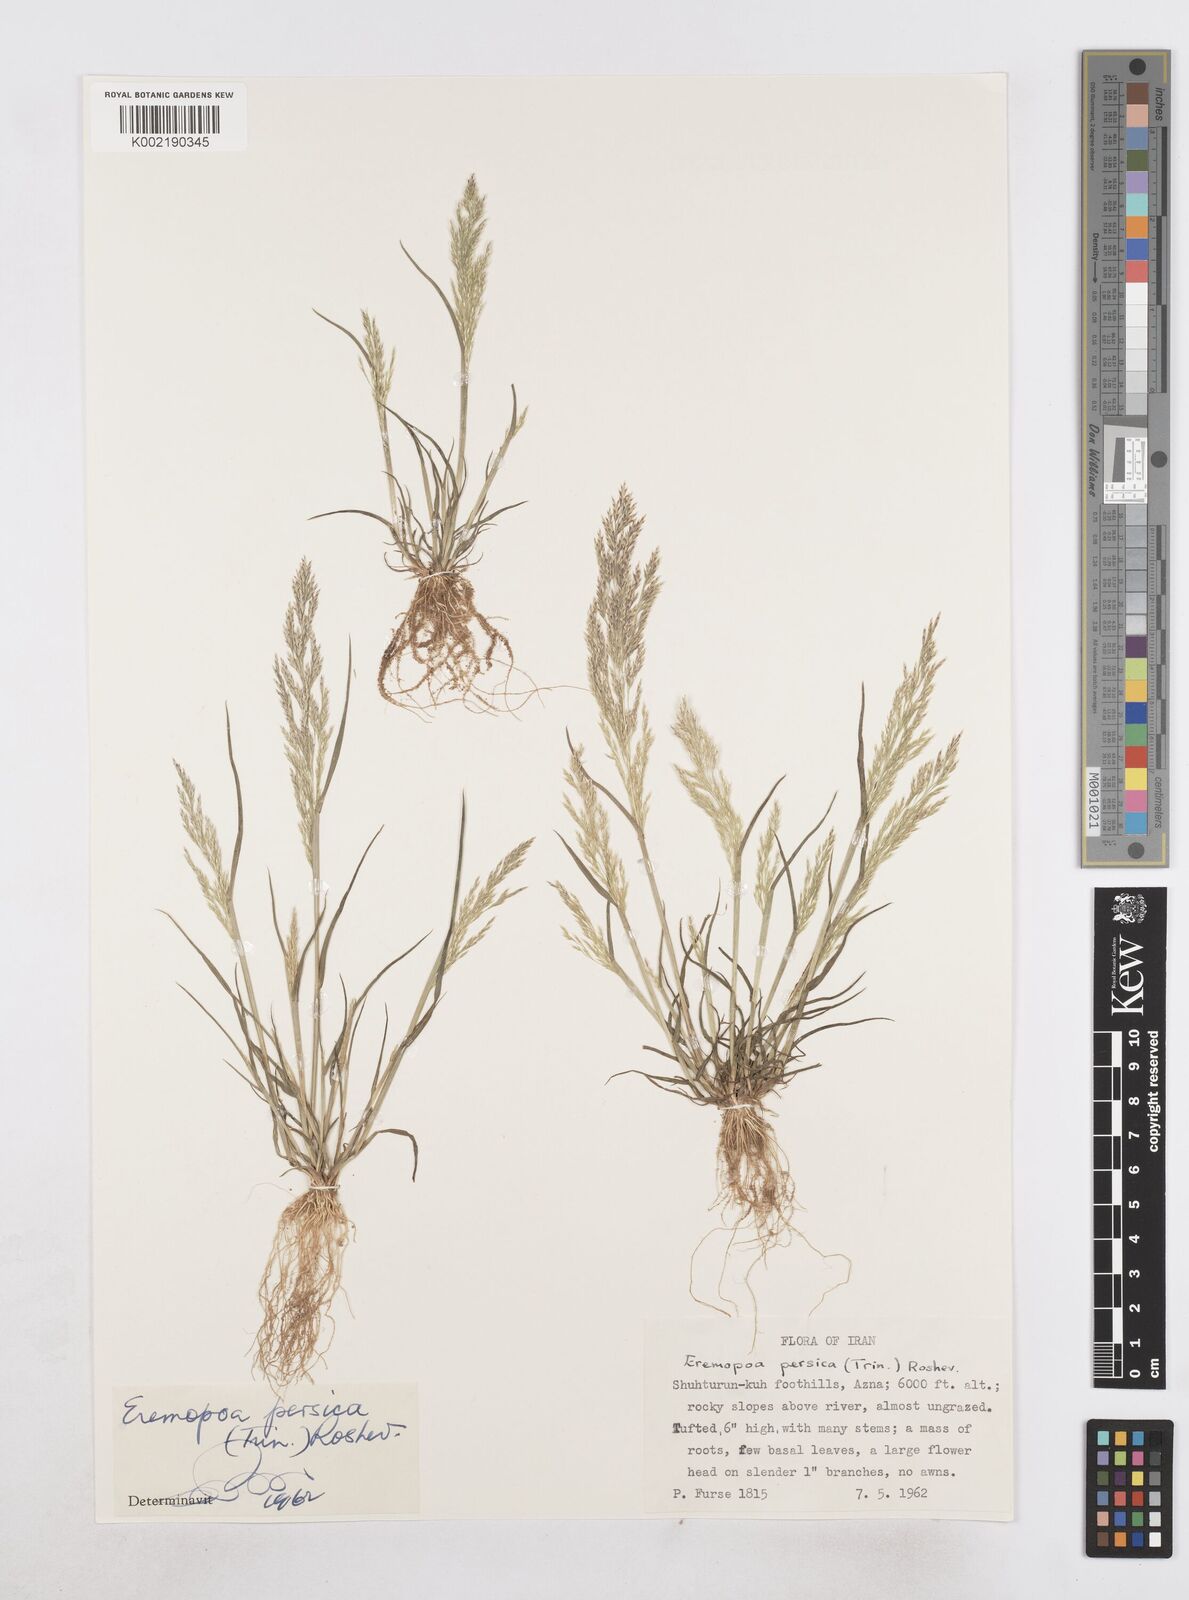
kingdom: Plantae
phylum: Tracheophyta
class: Liliopsida
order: Poales
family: Poaceae
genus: Poa
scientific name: Poa persica
